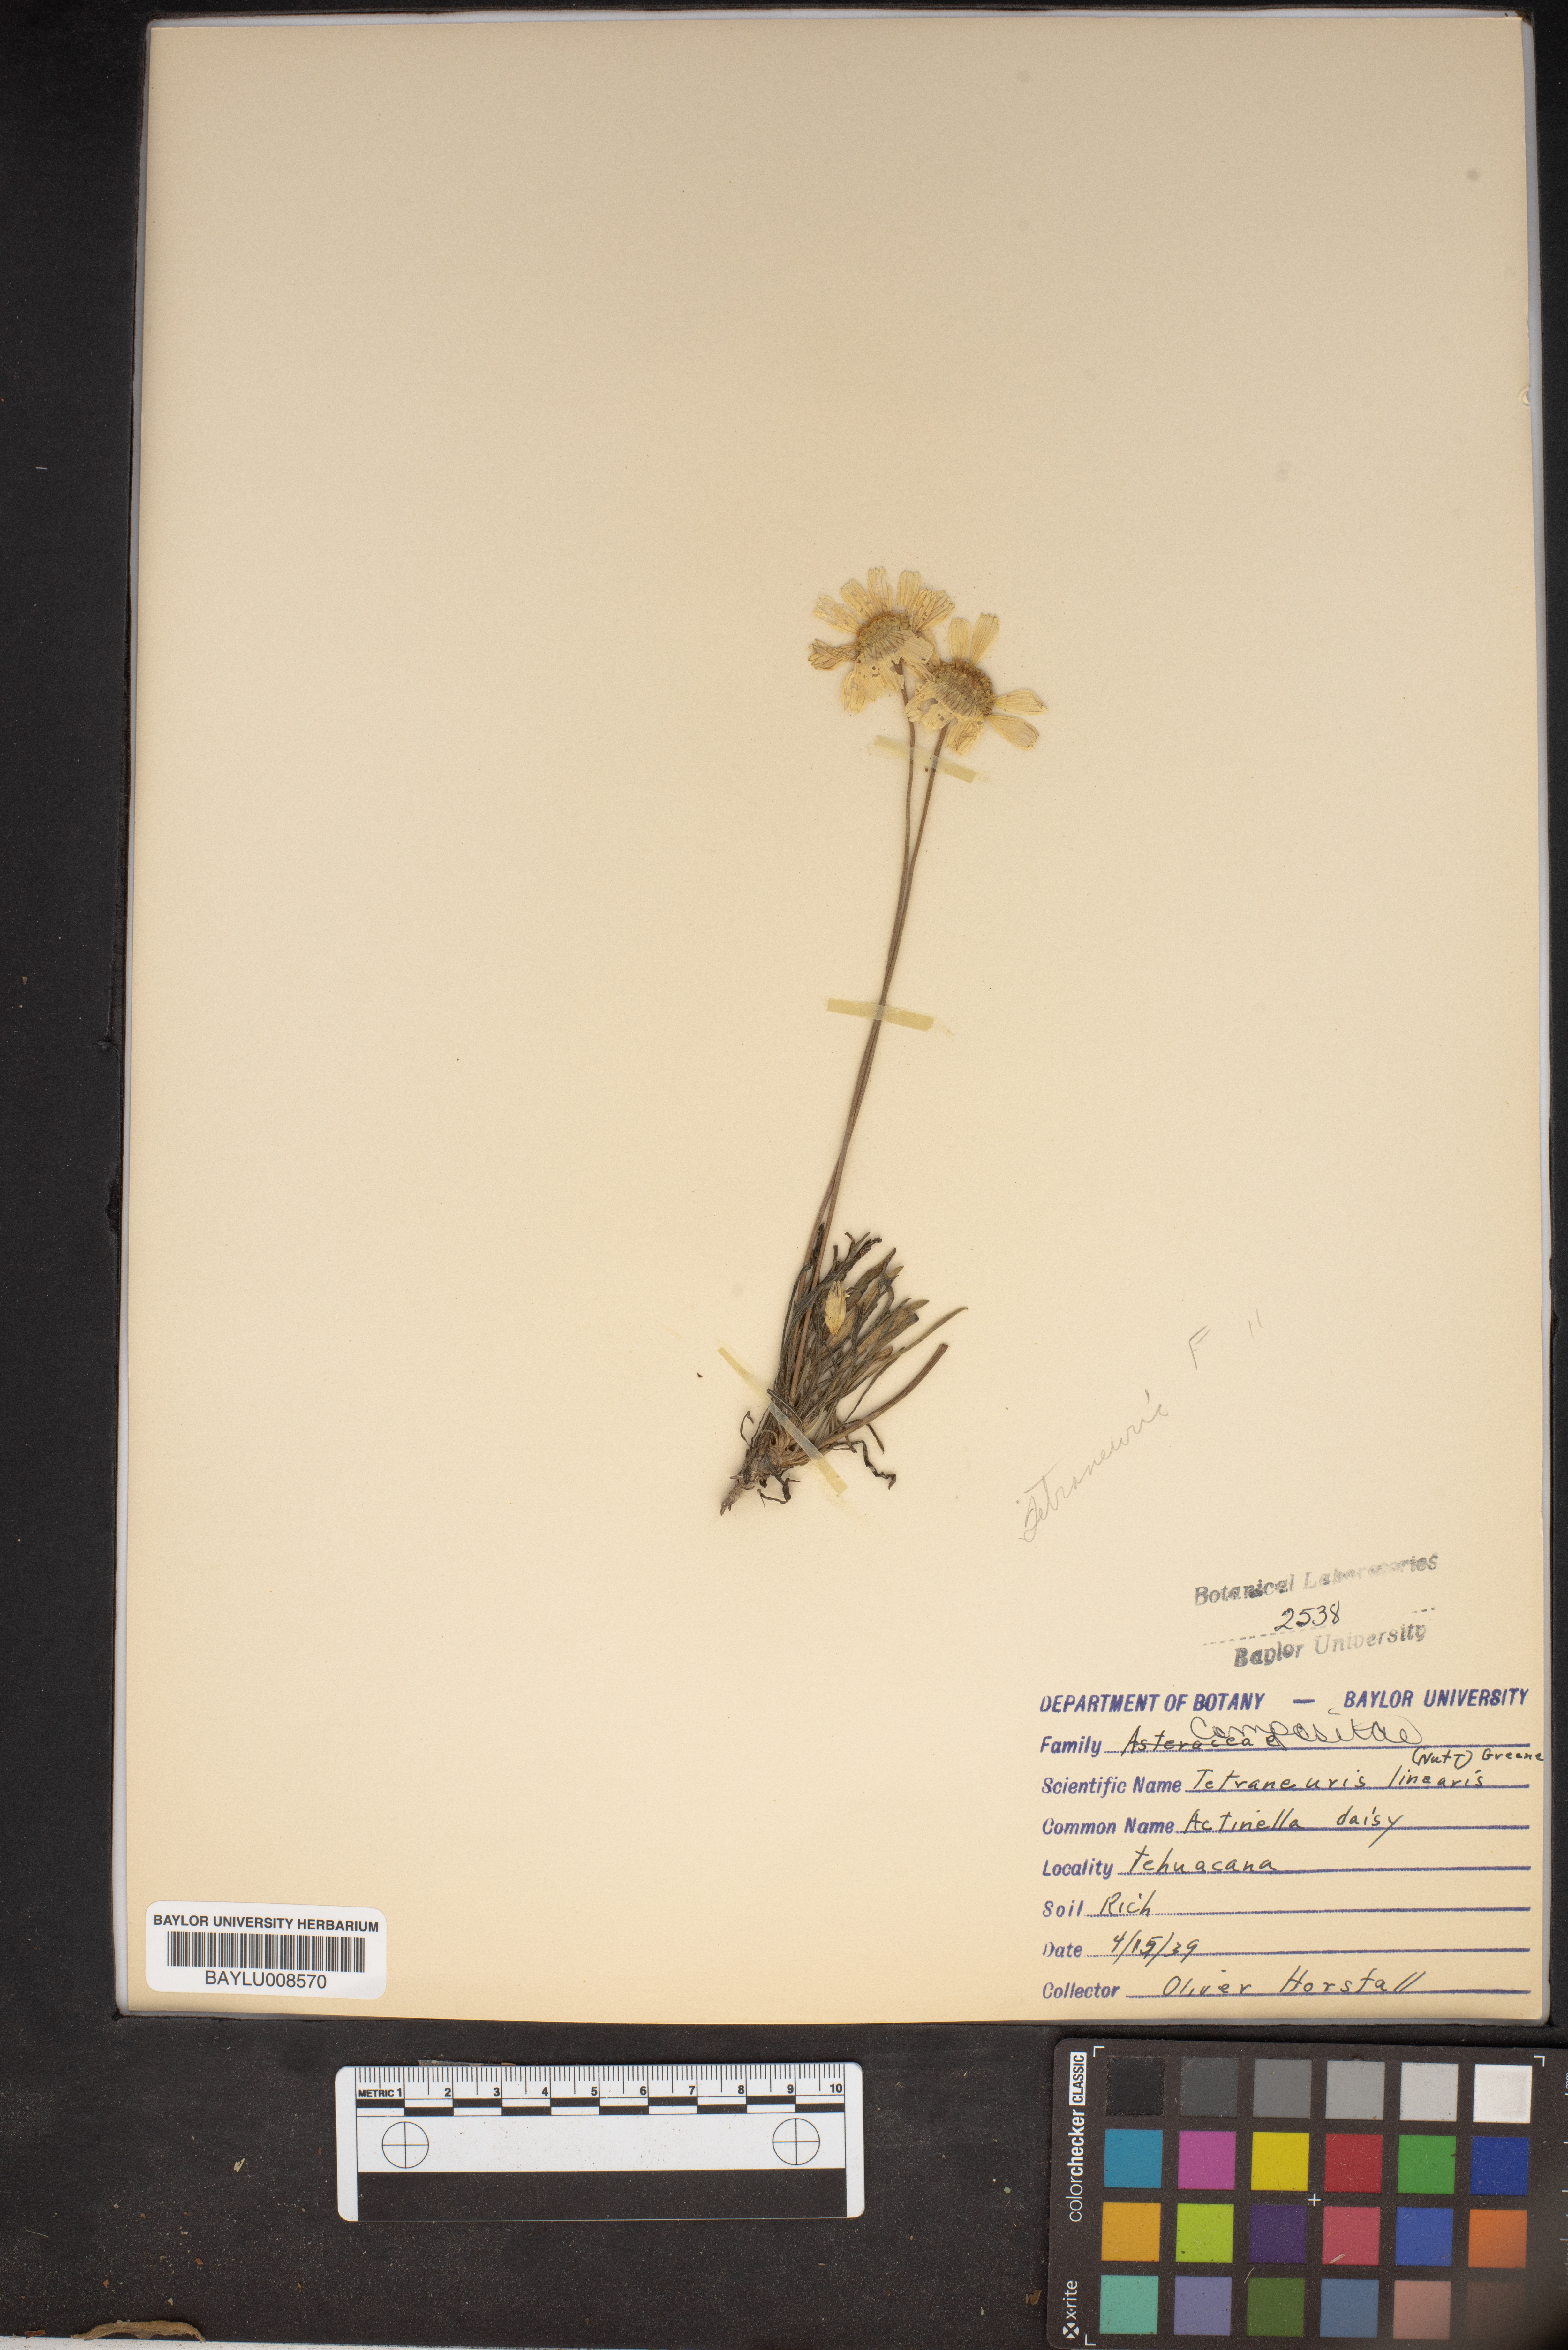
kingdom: Plantae
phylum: Tracheophyta
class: Magnoliopsida
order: Asterales
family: Asteraceae
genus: Tetraneuris
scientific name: Tetraneuris scaposa
